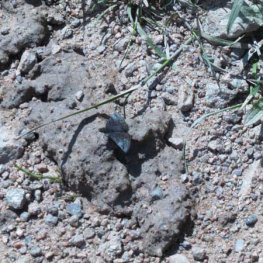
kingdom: Animalia
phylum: Arthropoda
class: Insecta
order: Lepidoptera
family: Hesperiidae
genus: Erynnis
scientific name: Erynnis icelus
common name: Dreamy Duskywing
